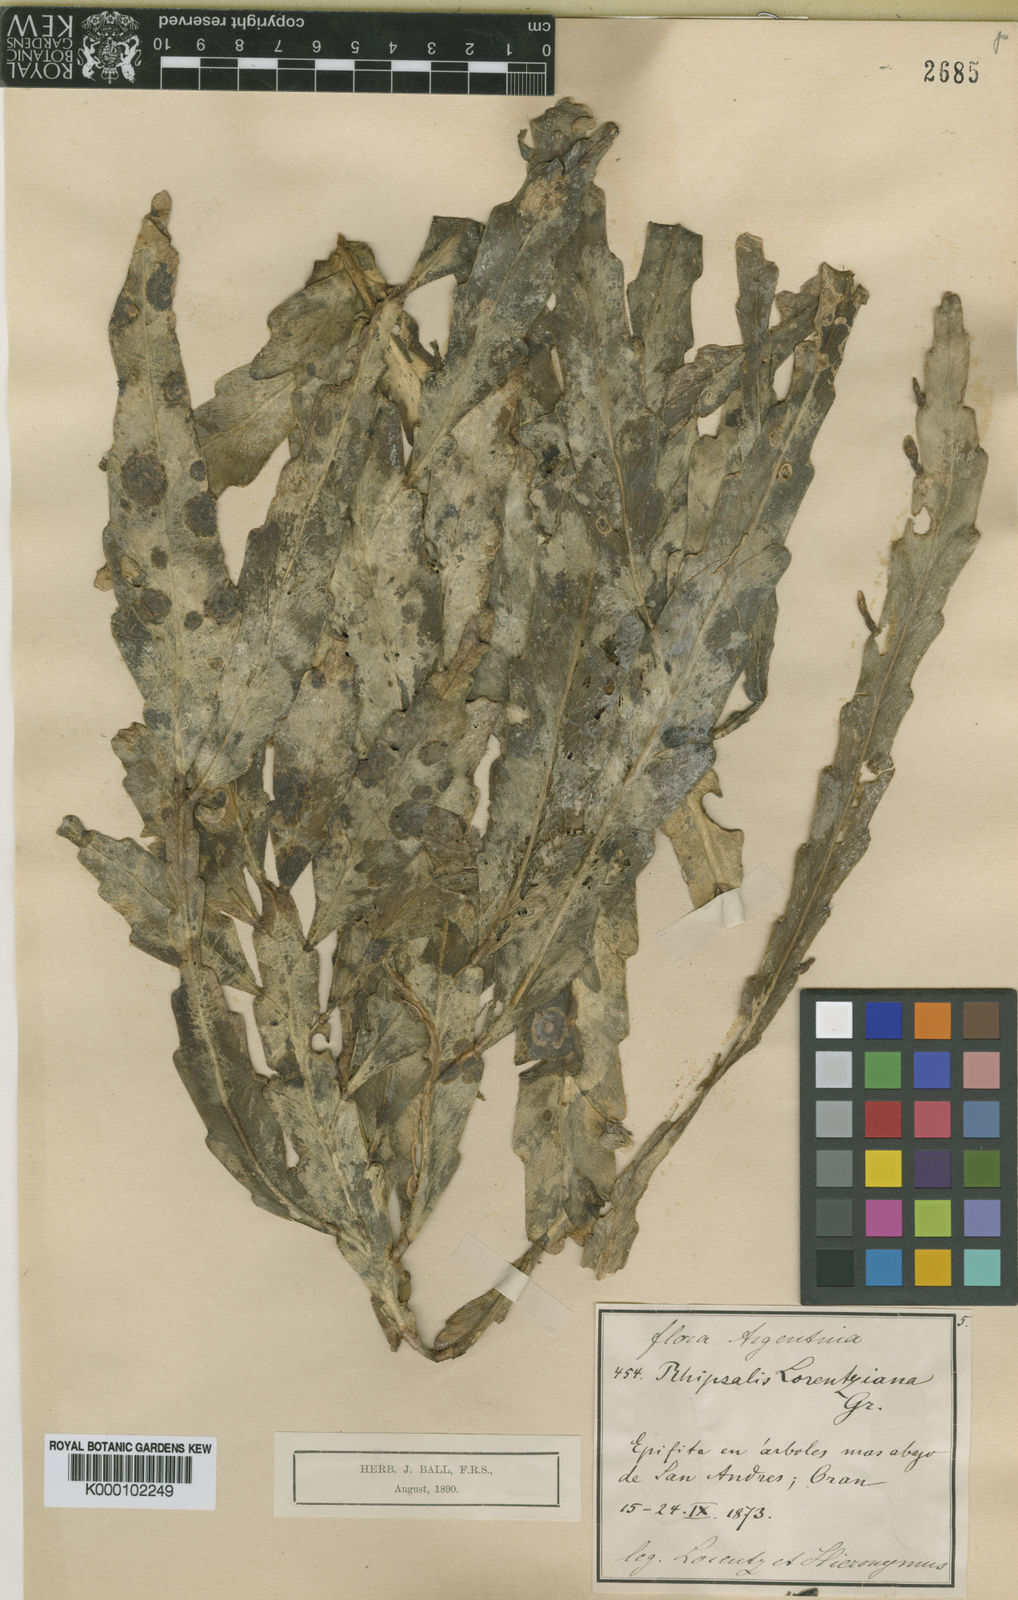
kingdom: Plantae
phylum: Tracheophyta
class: Magnoliopsida
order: Caryophyllales
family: Cactaceae
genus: Lepismium
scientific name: Lepismium lorentzianum
